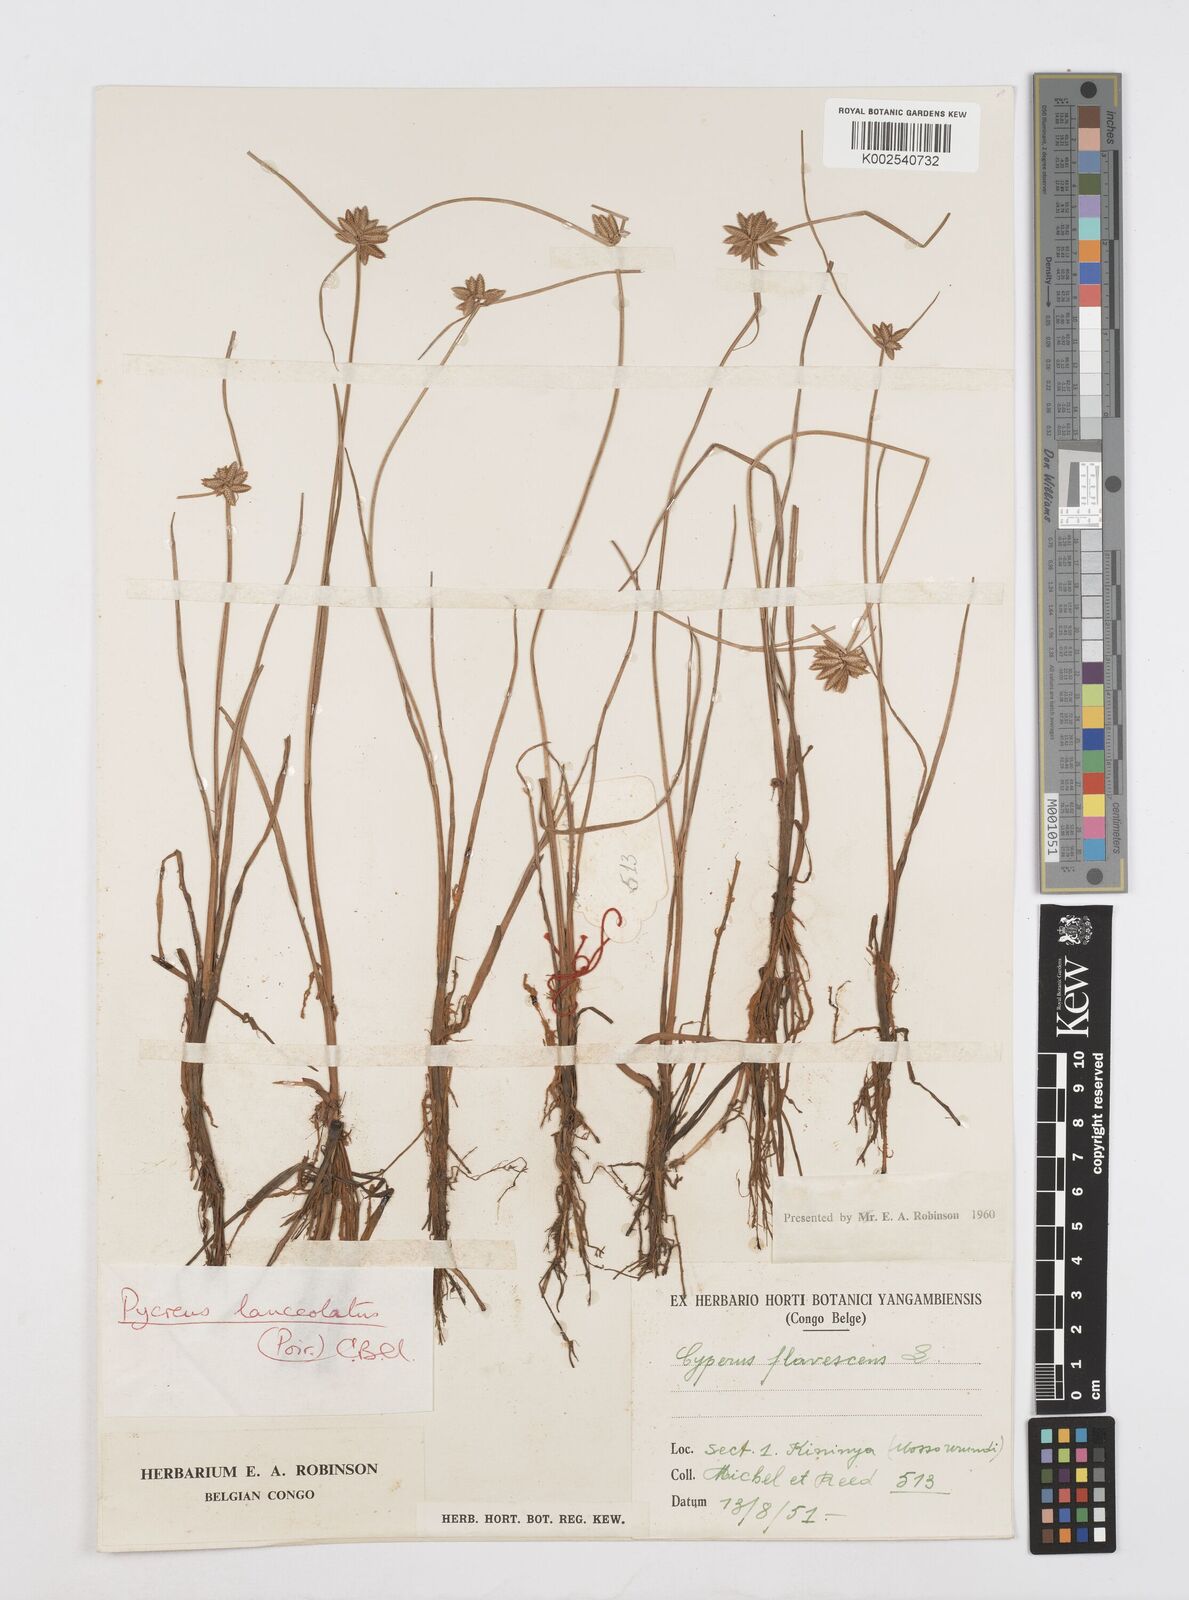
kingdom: Plantae
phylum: Tracheophyta
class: Liliopsida
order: Poales
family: Cyperaceae
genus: Cyperus
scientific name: Cyperus
